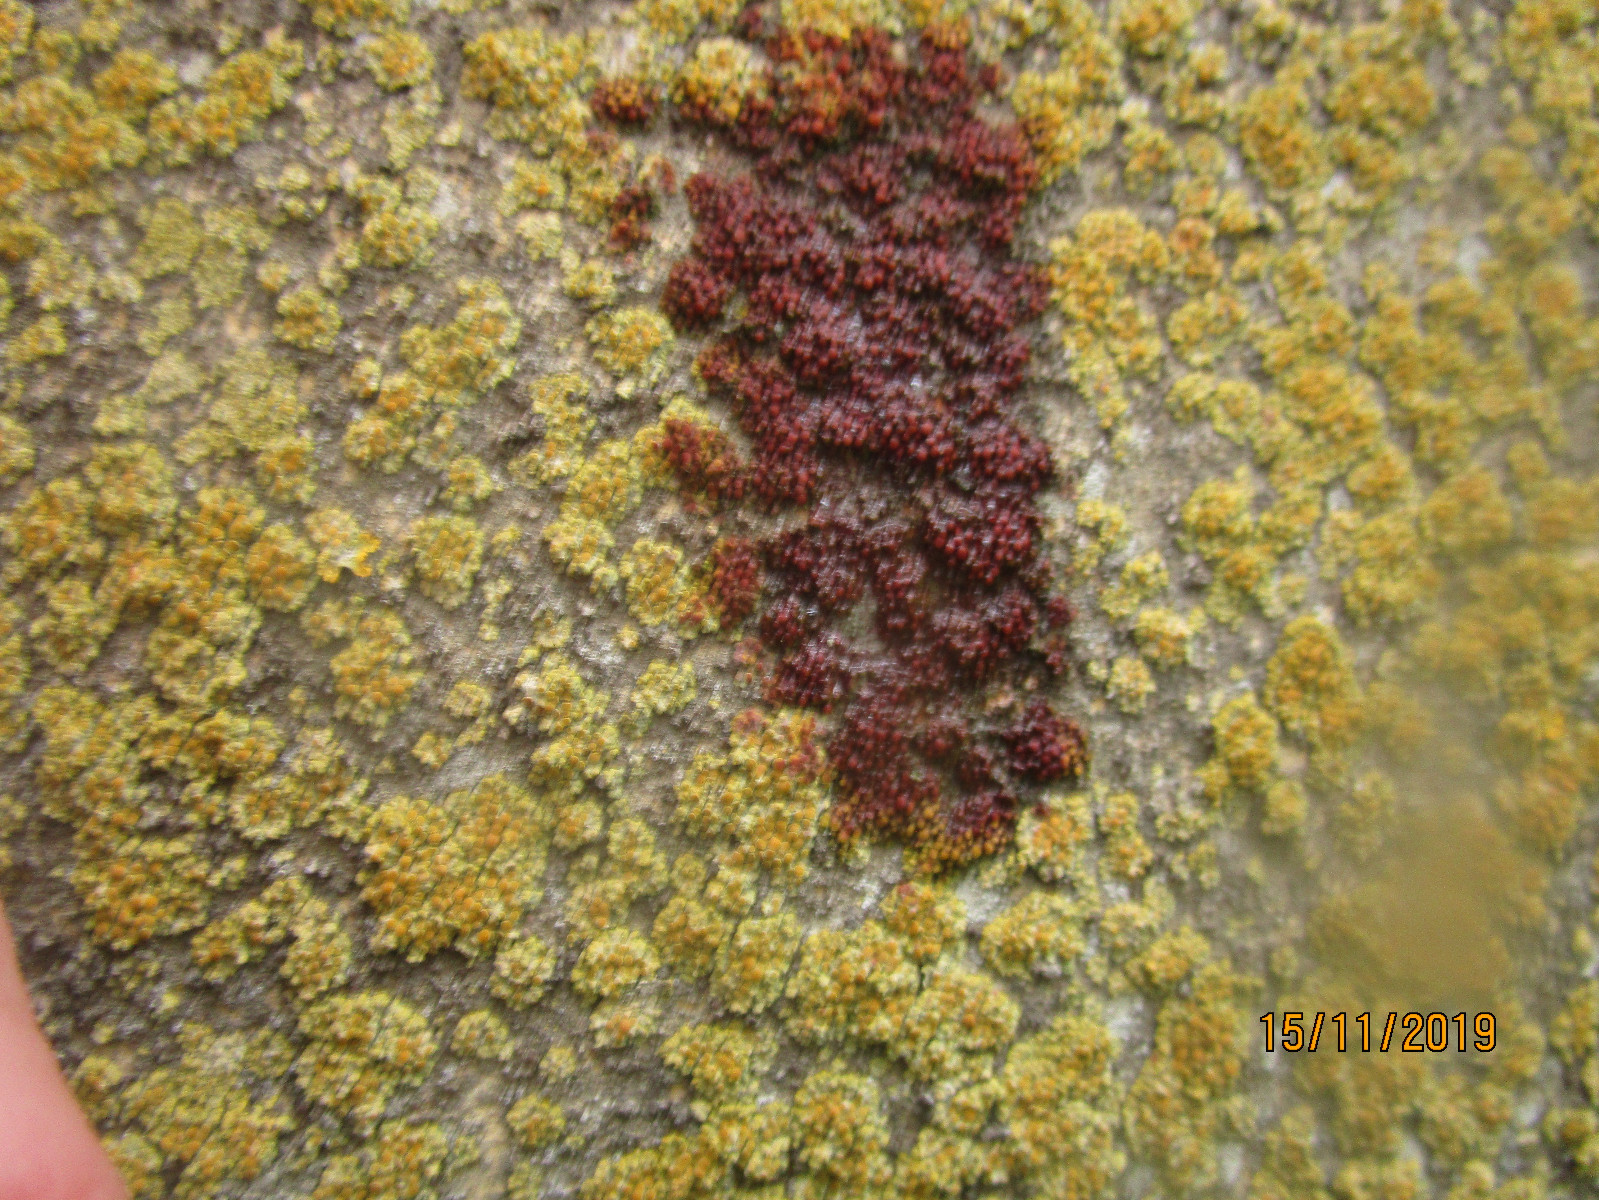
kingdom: Fungi
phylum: Ascomycota
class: Lecanoromycetes
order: Teloschistales
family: Teloschistaceae
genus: Calogaya
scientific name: Calogaya saxicola
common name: mur-orangelav
